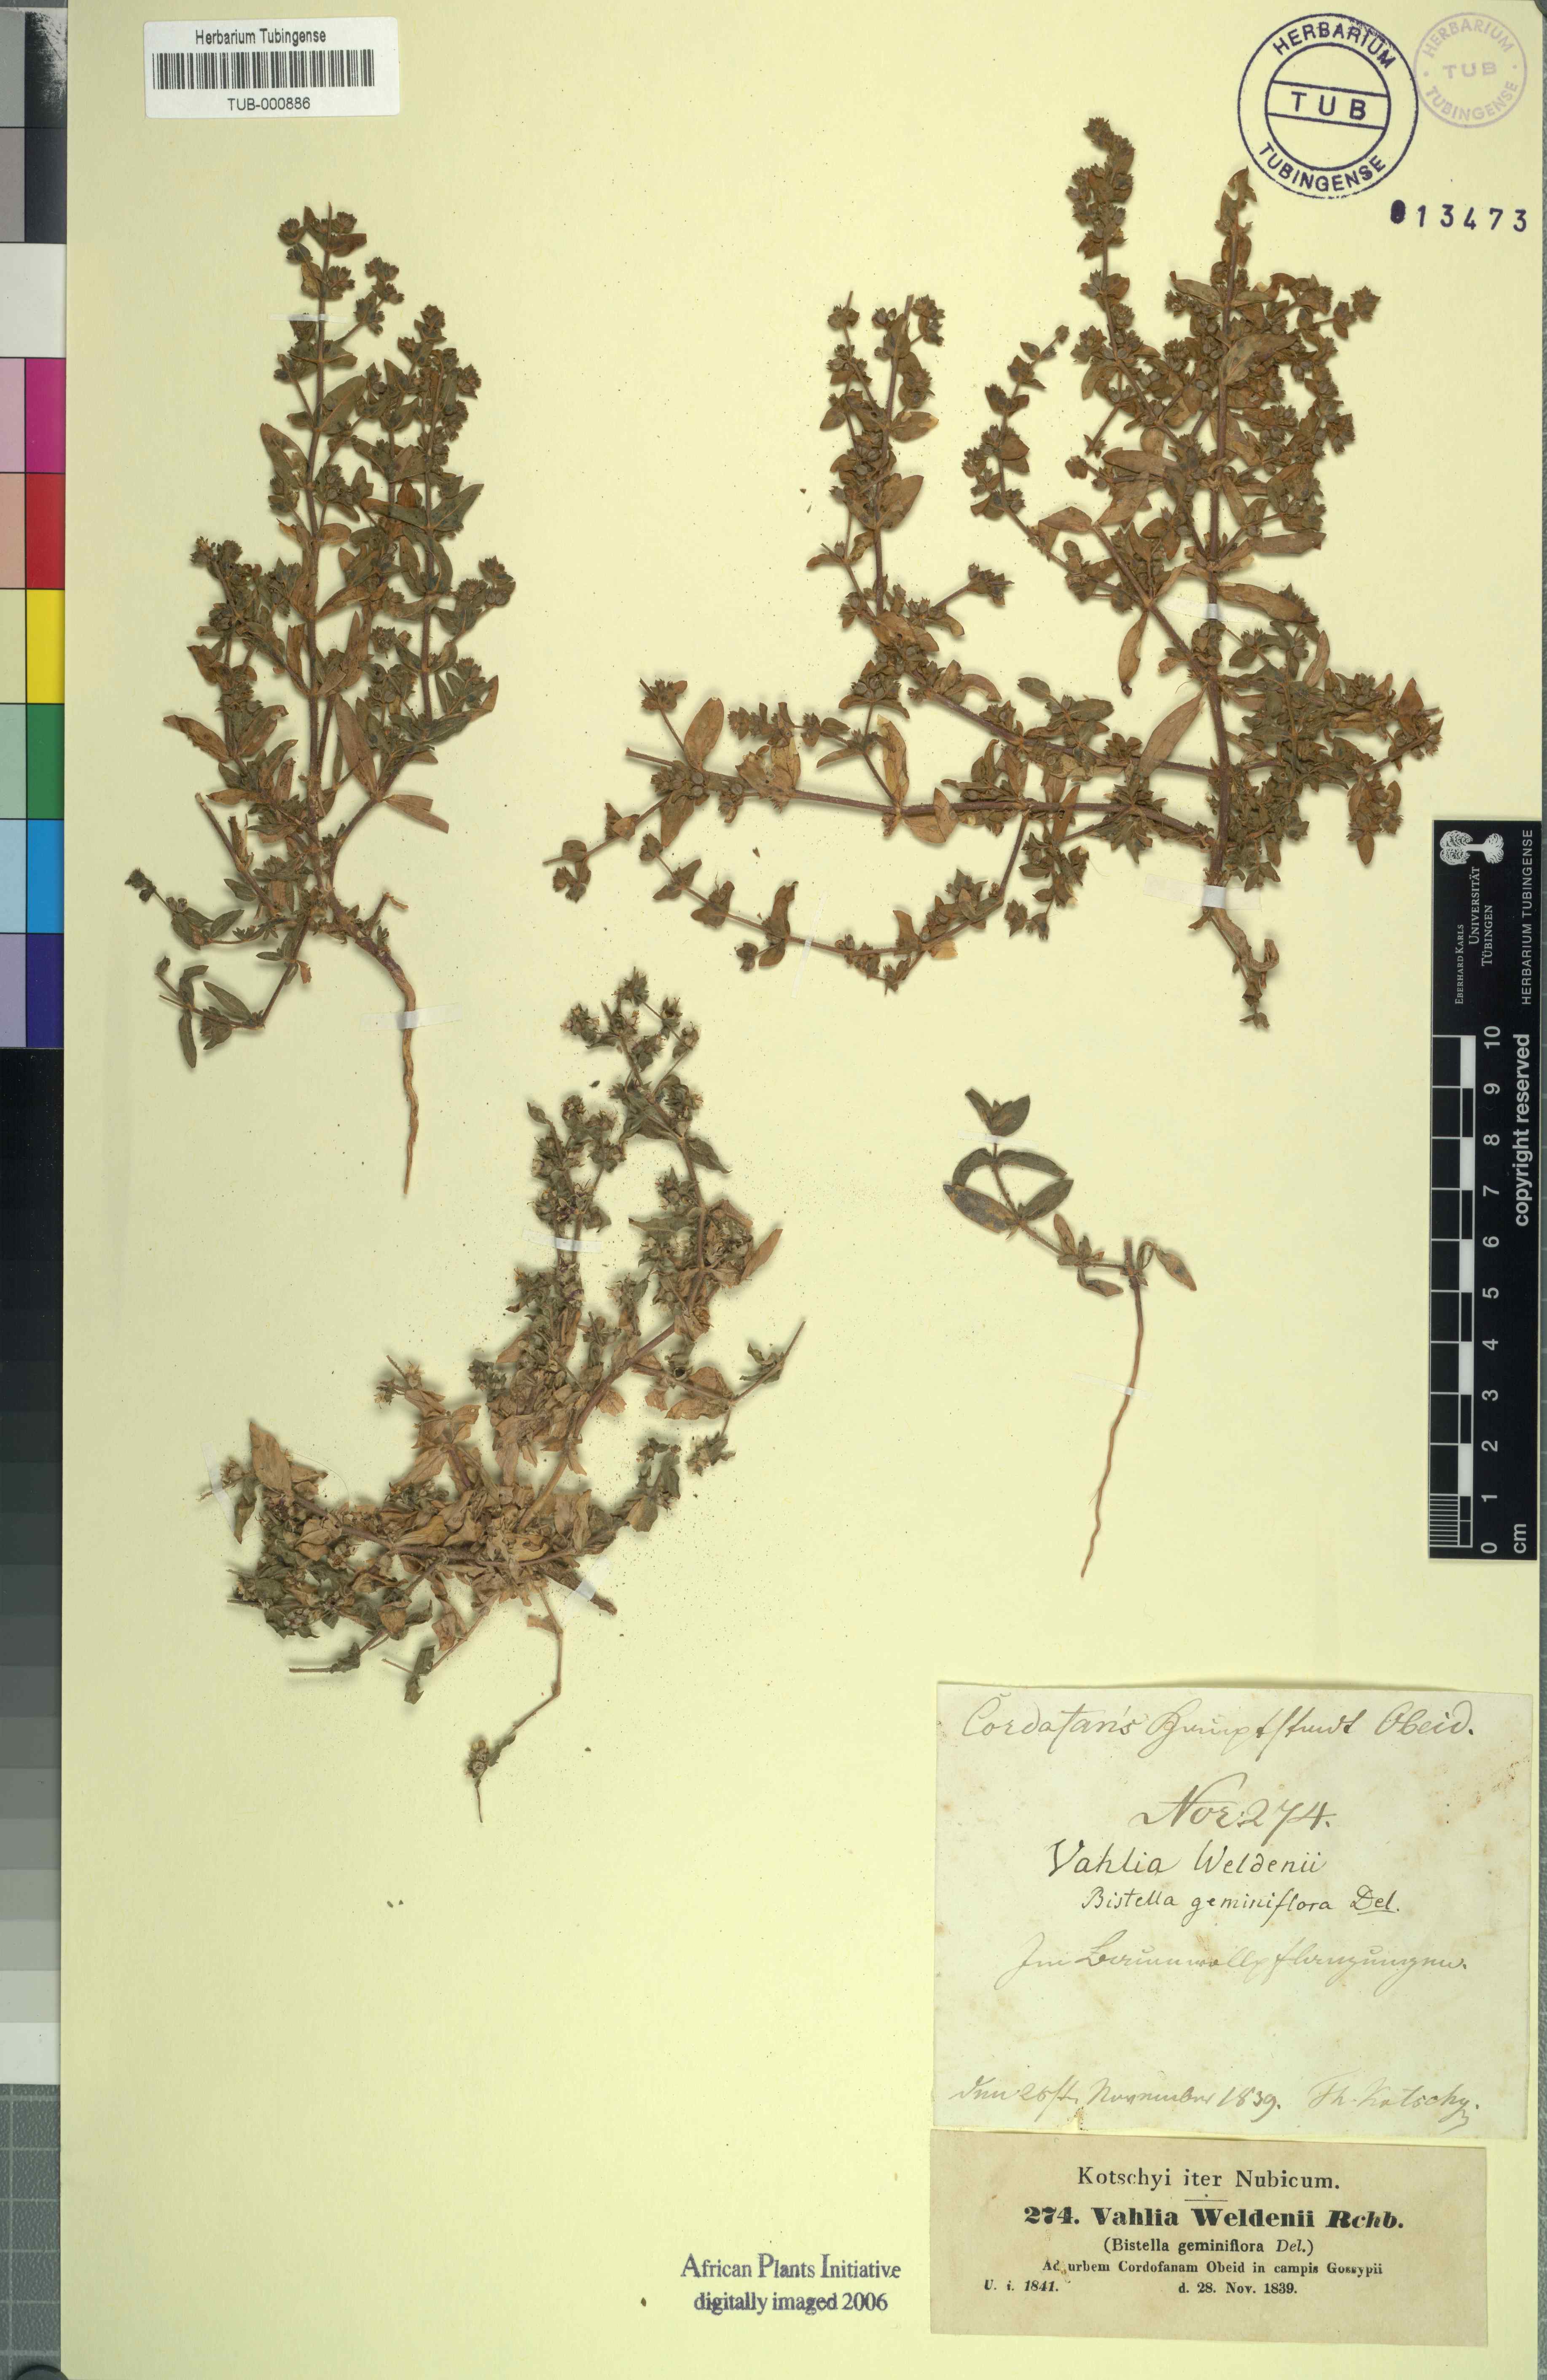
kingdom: Plantae
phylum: Tracheophyta
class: Magnoliopsida
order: Vahliales
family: Vahliaceae
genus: Vahlia
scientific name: Vahlia digyna
